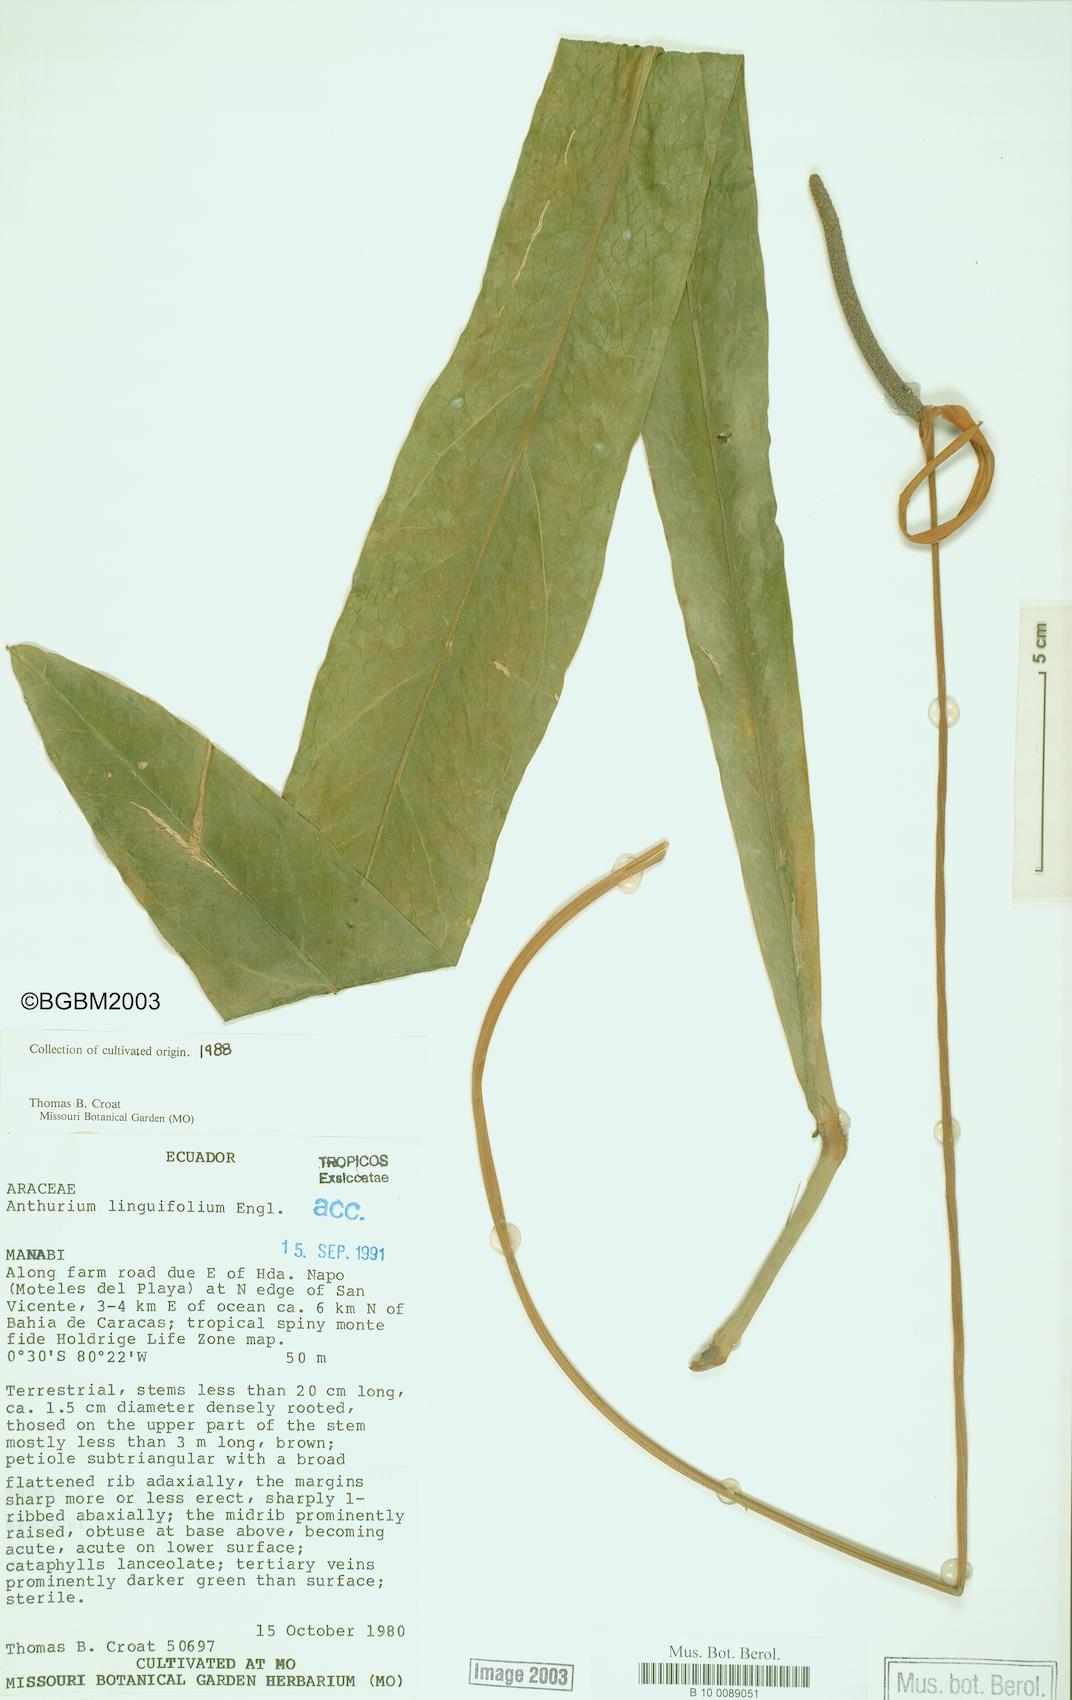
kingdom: Plantae
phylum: Tracheophyta
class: Liliopsida
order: Alismatales
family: Araceae
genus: Anthurium
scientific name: Anthurium linguifolium
